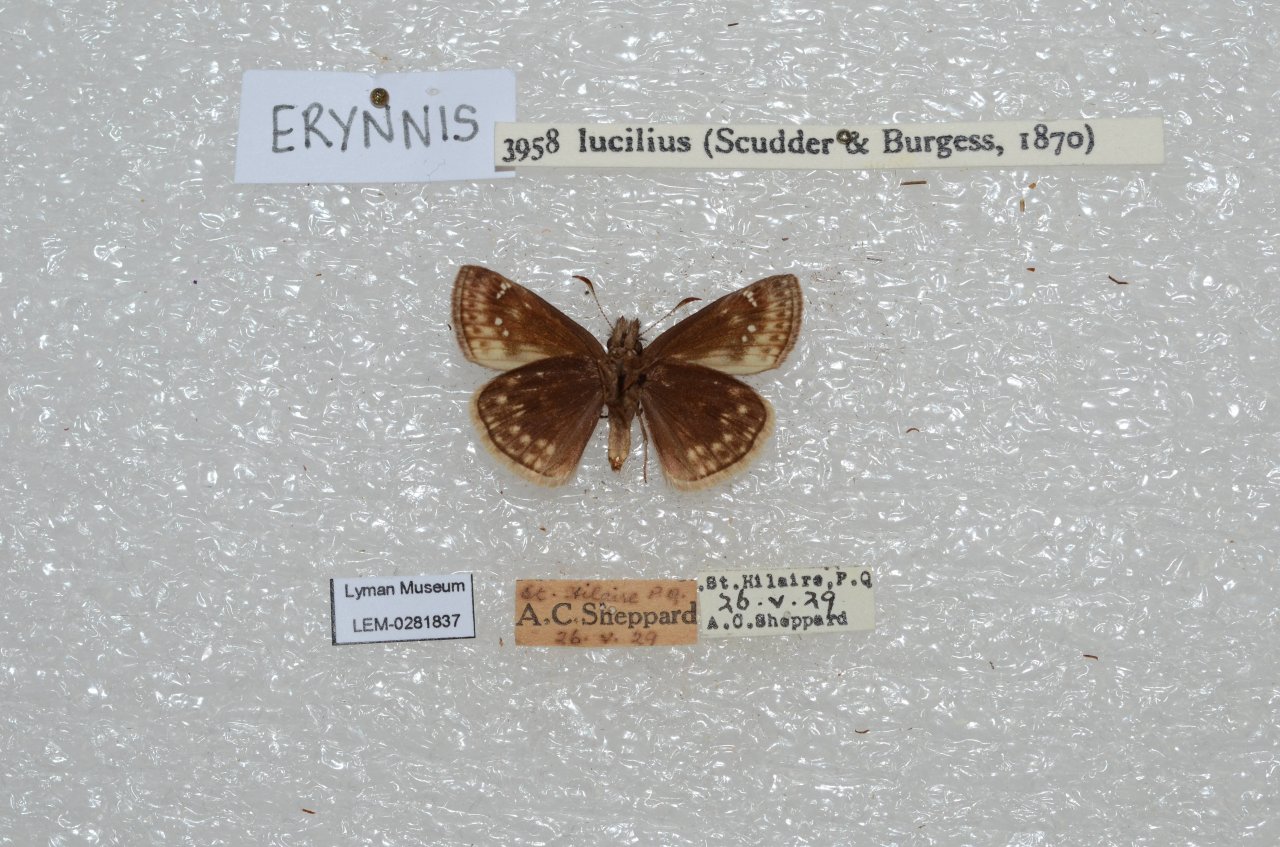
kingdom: Animalia
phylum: Arthropoda
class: Insecta
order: Lepidoptera
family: Hesperiidae
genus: Gesta
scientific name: Gesta
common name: Columbine Duskywing
